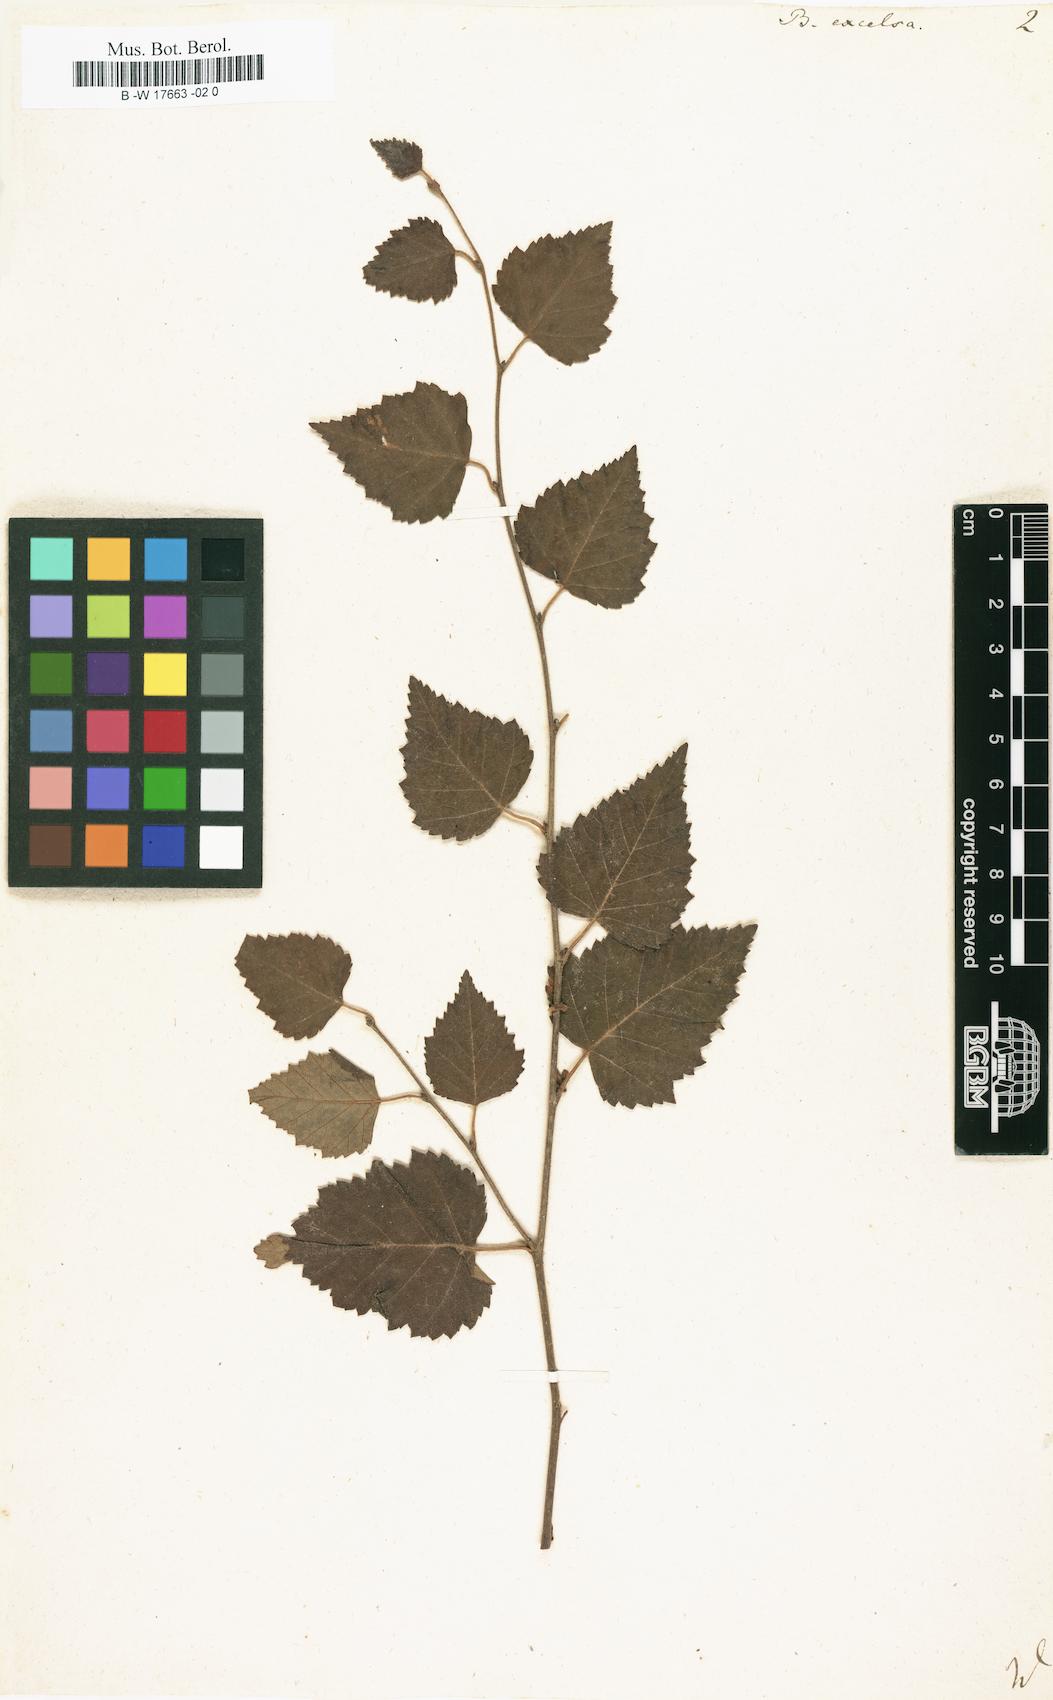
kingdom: Plantae
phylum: Tracheophyta
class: Magnoliopsida
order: Fagales
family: Betulaceae
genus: Betula
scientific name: Betula papyrifera
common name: Paper birch
